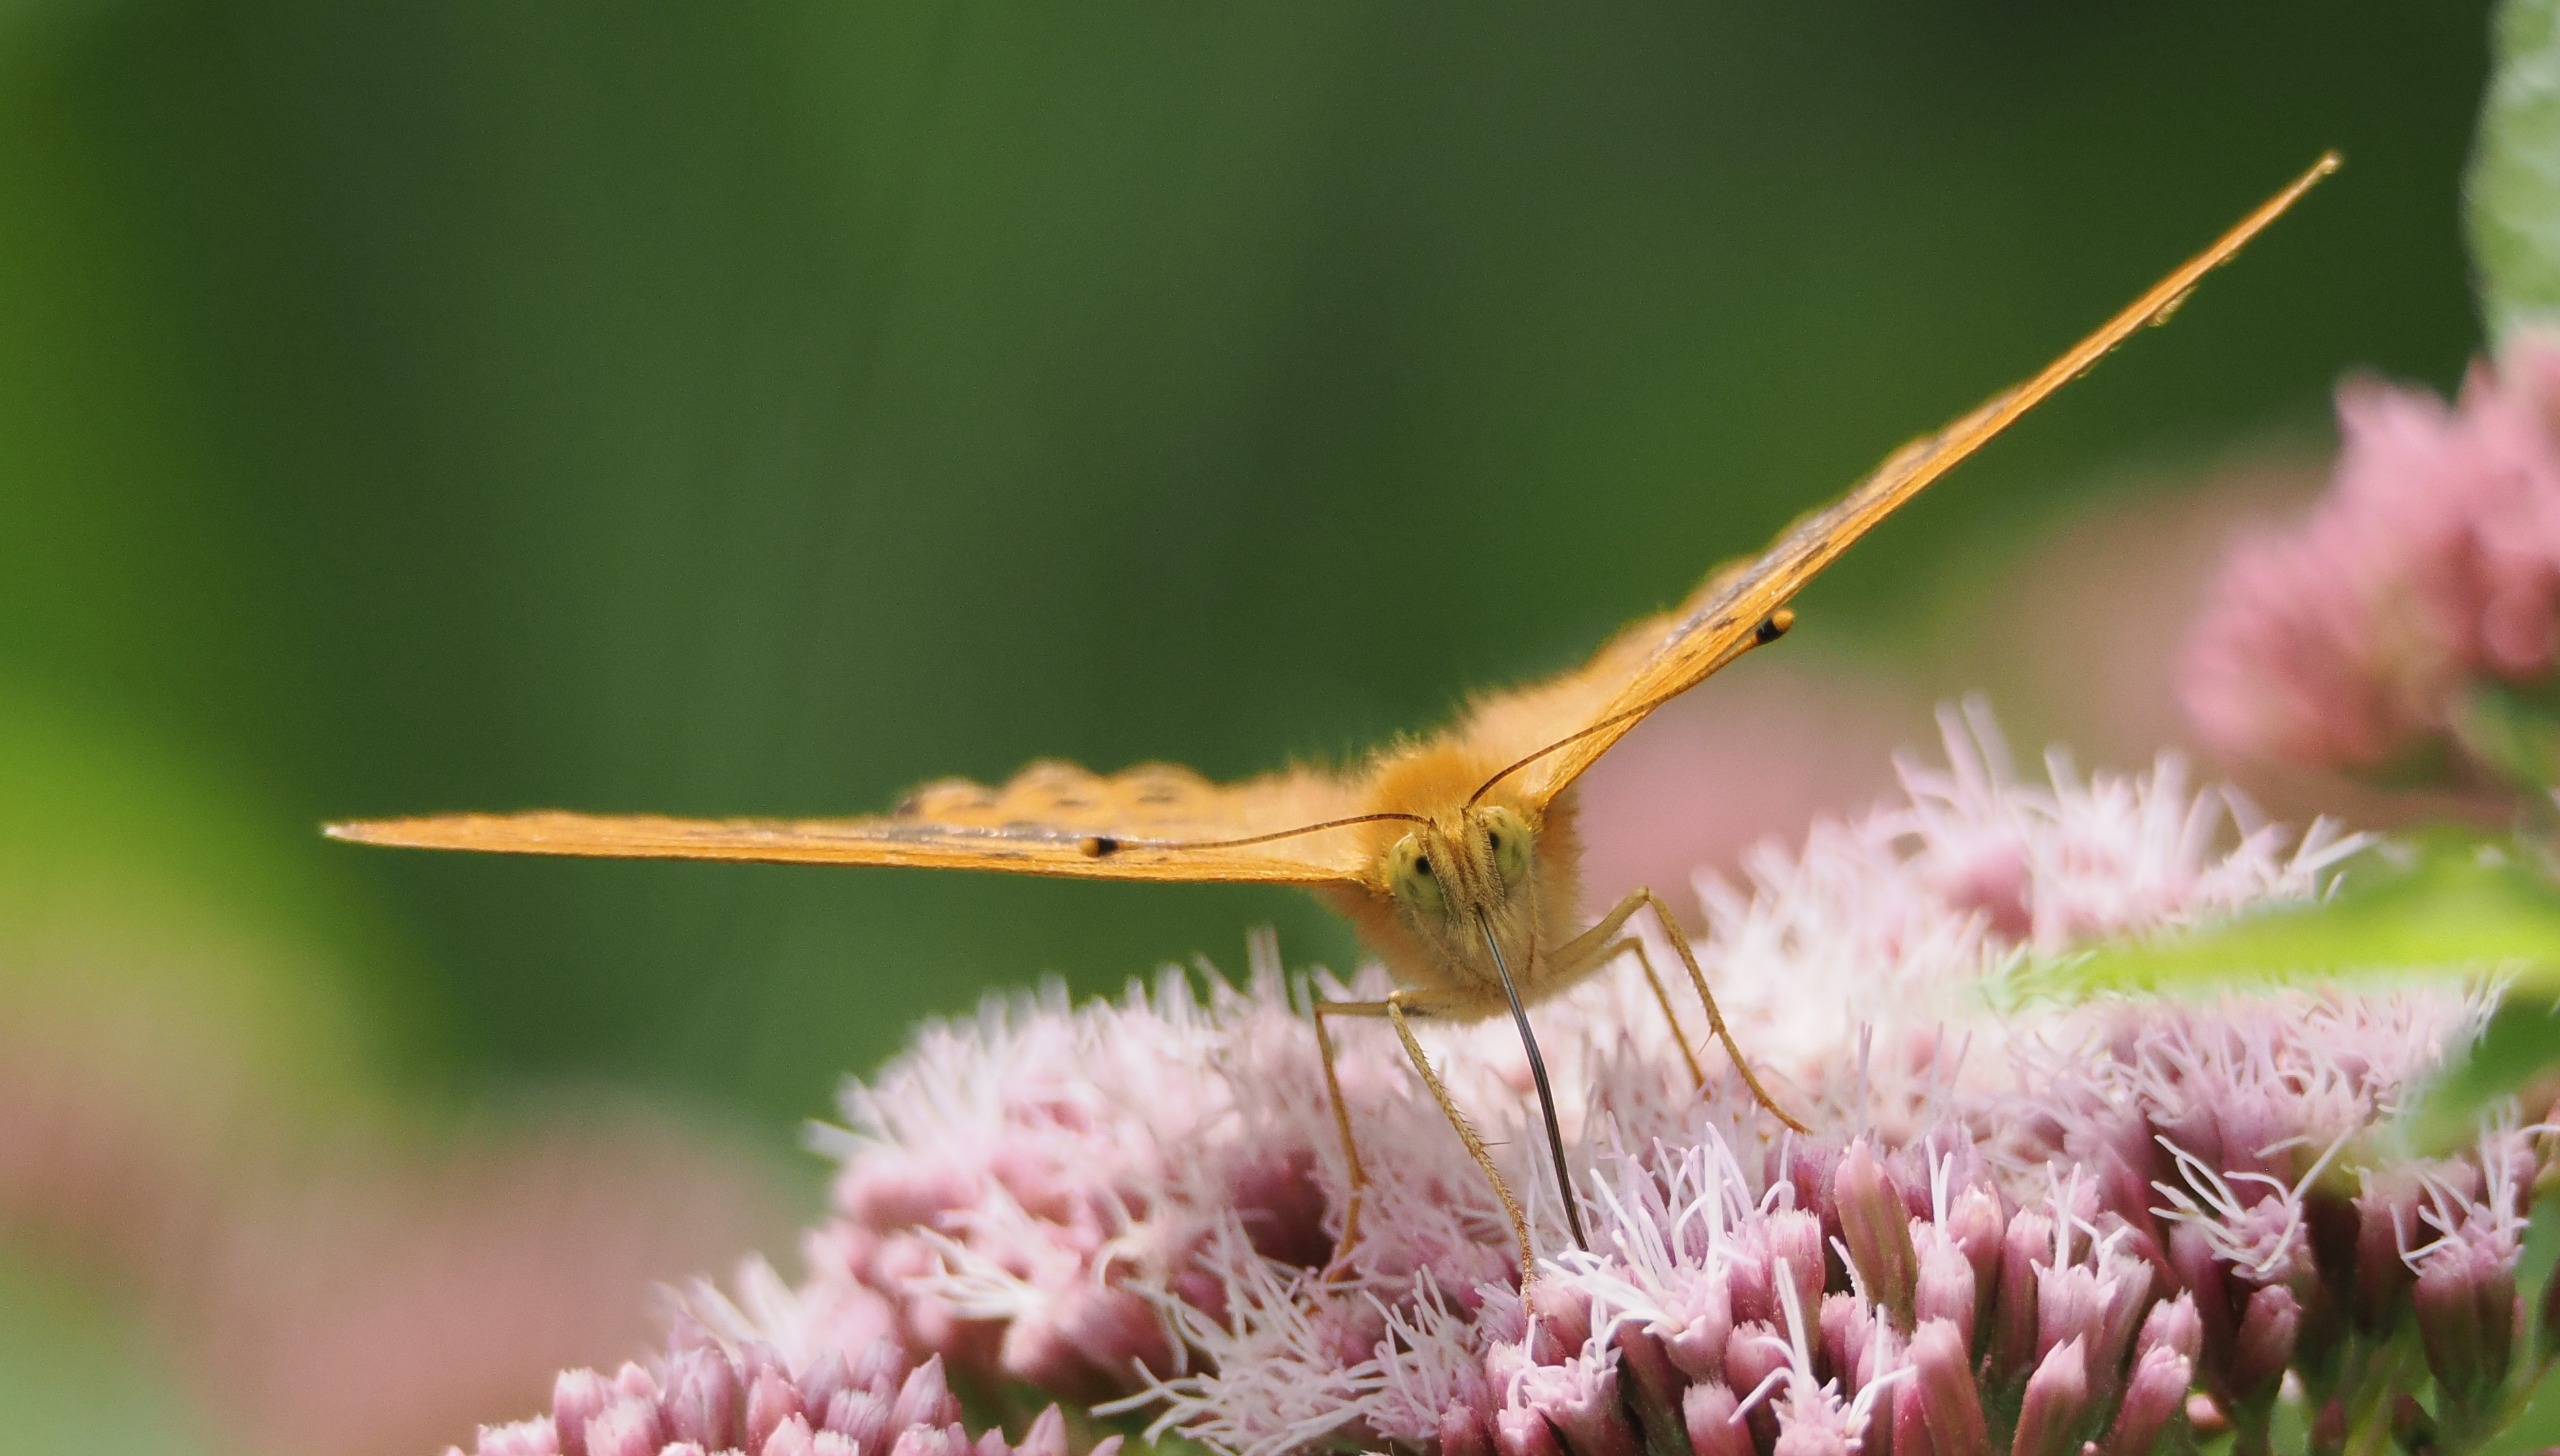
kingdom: Animalia
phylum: Arthropoda
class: Insecta
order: Lepidoptera
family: Nymphalidae
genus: Argynnis
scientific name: Argynnis paphia
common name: Kejserkåbe
